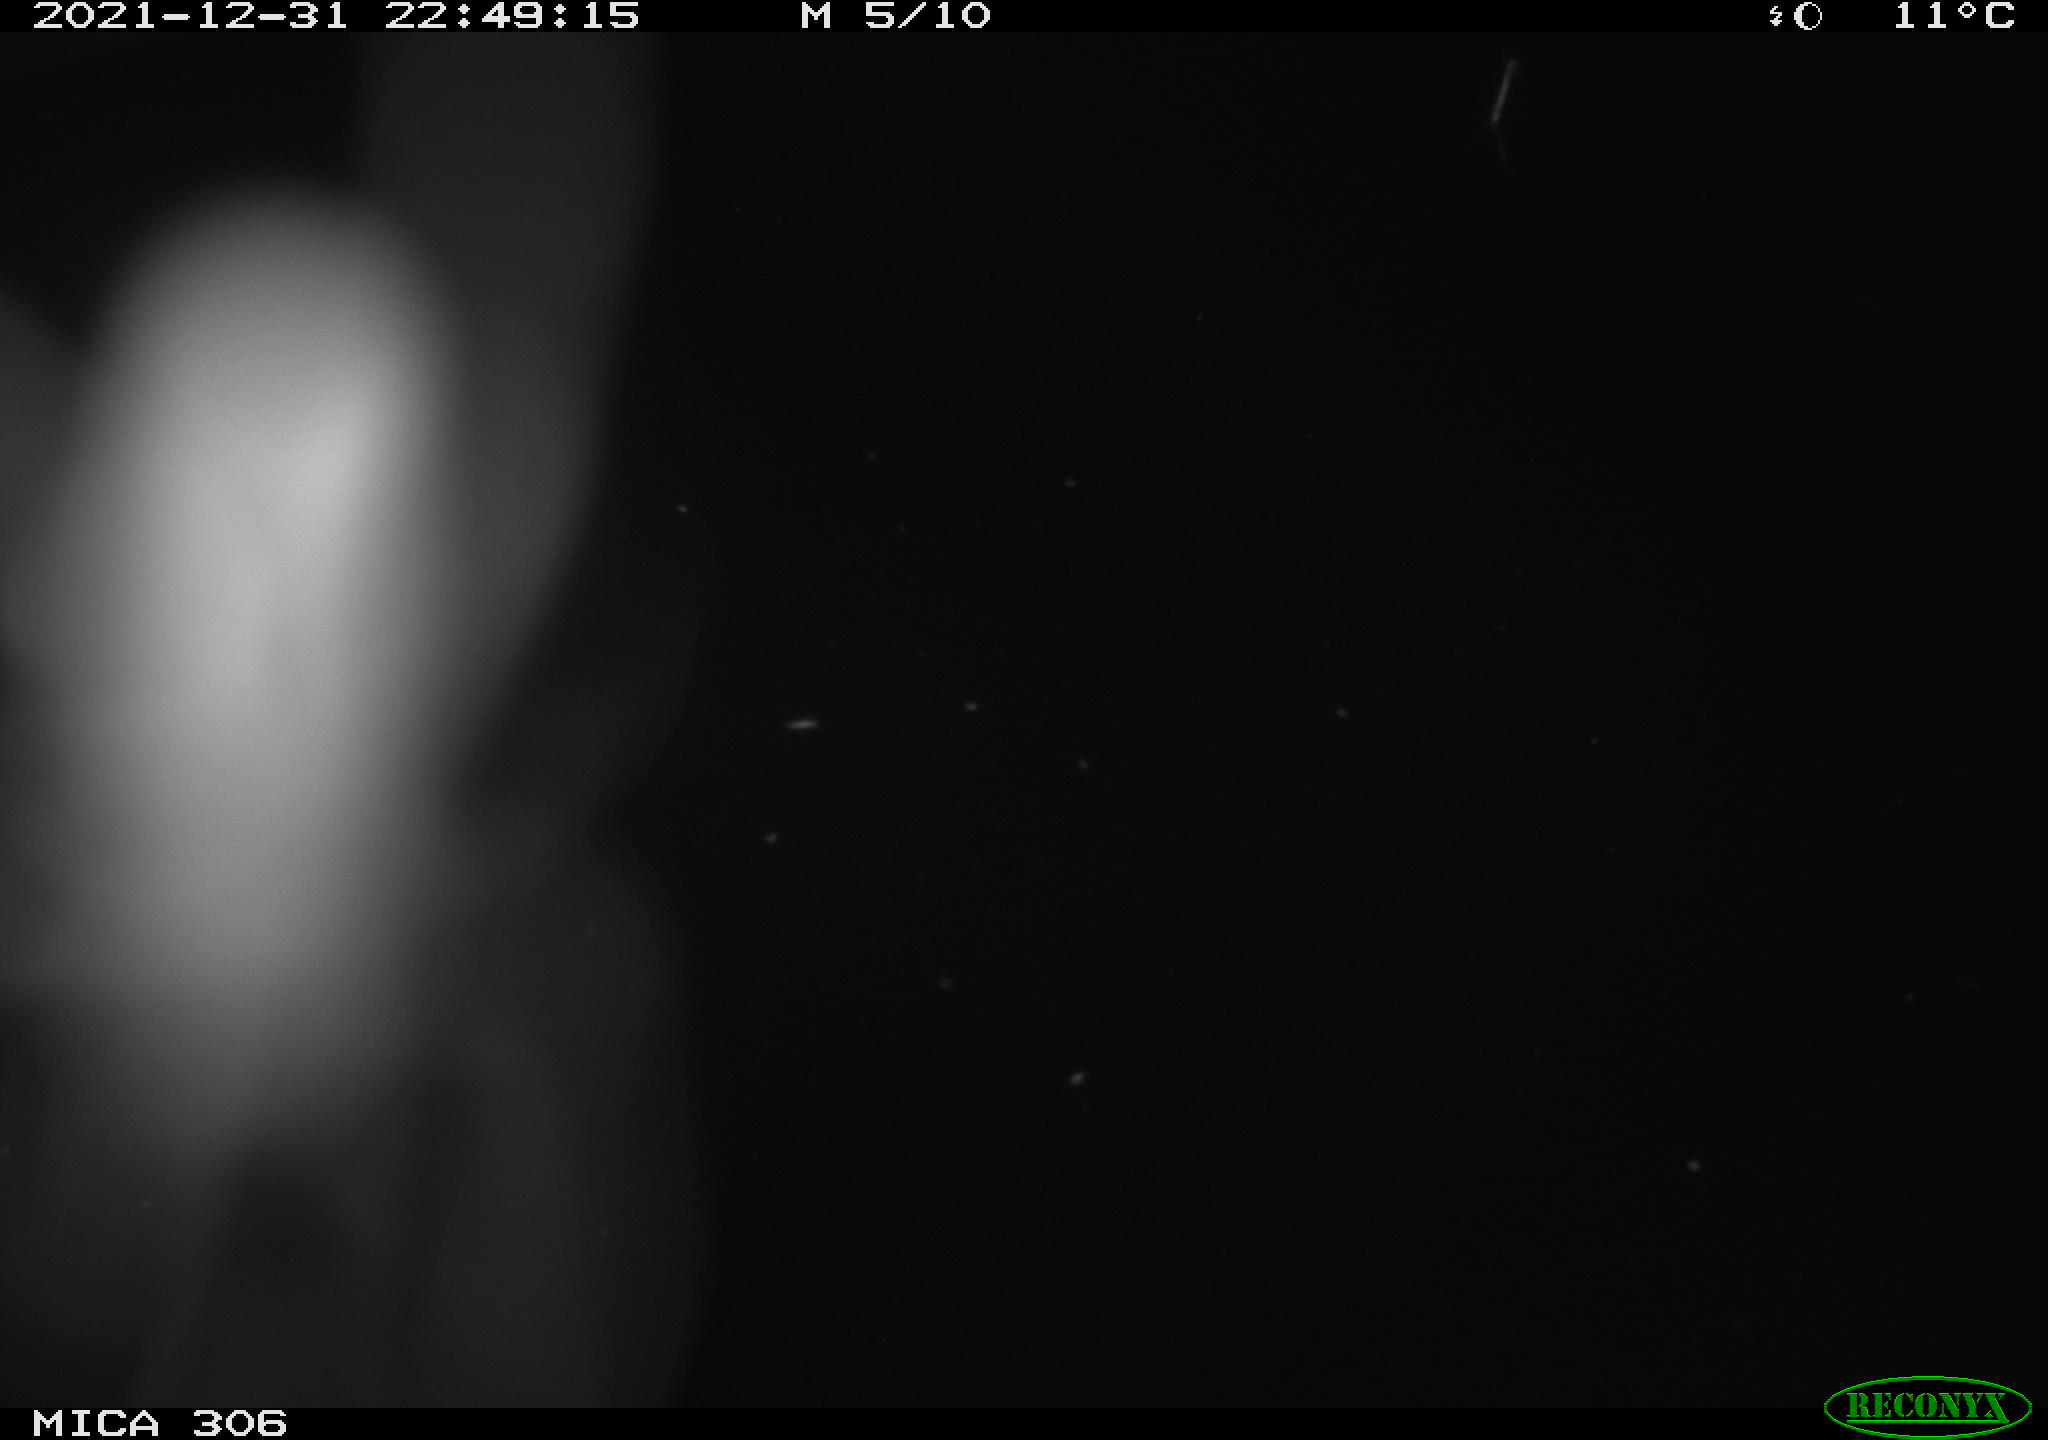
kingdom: Animalia
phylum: Chordata
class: Mammalia
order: Rodentia
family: Cricetidae
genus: Ondatra
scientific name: Ondatra zibethicus
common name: Muskrat
